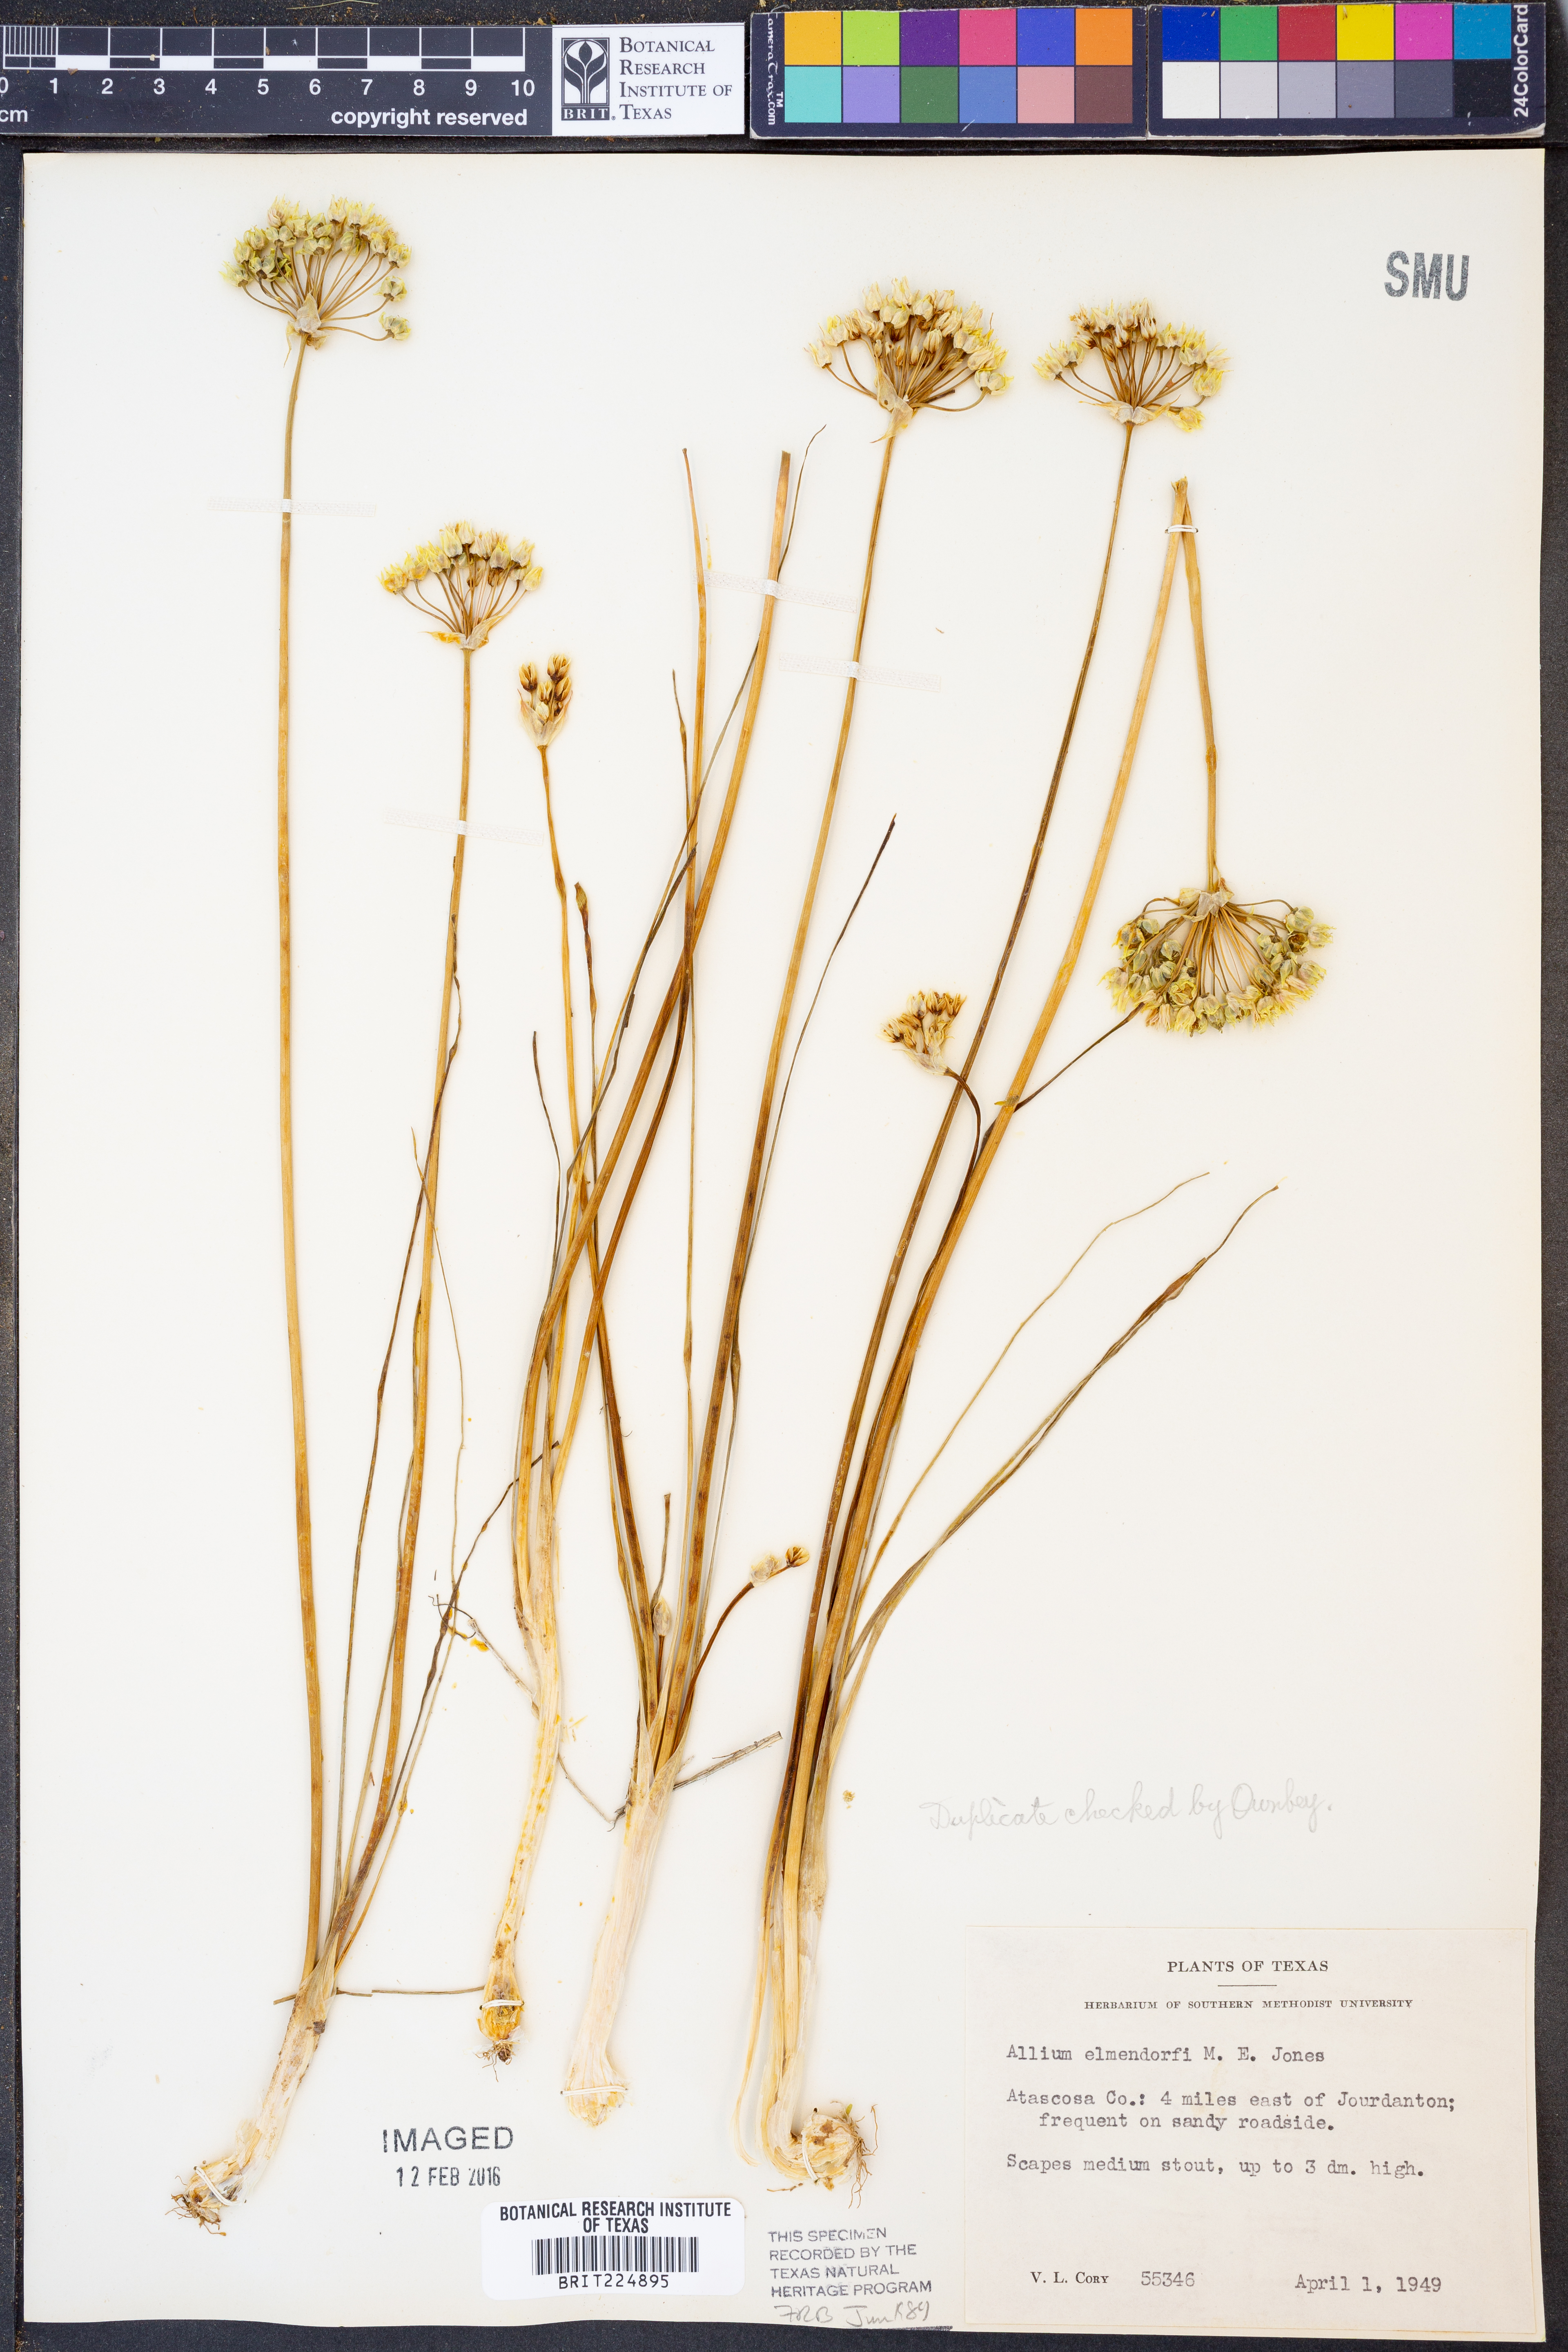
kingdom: Plantae
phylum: Tracheophyta
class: Liliopsida
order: Asparagales
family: Amaryllidaceae
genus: Allium
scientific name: Allium elmendorfii
